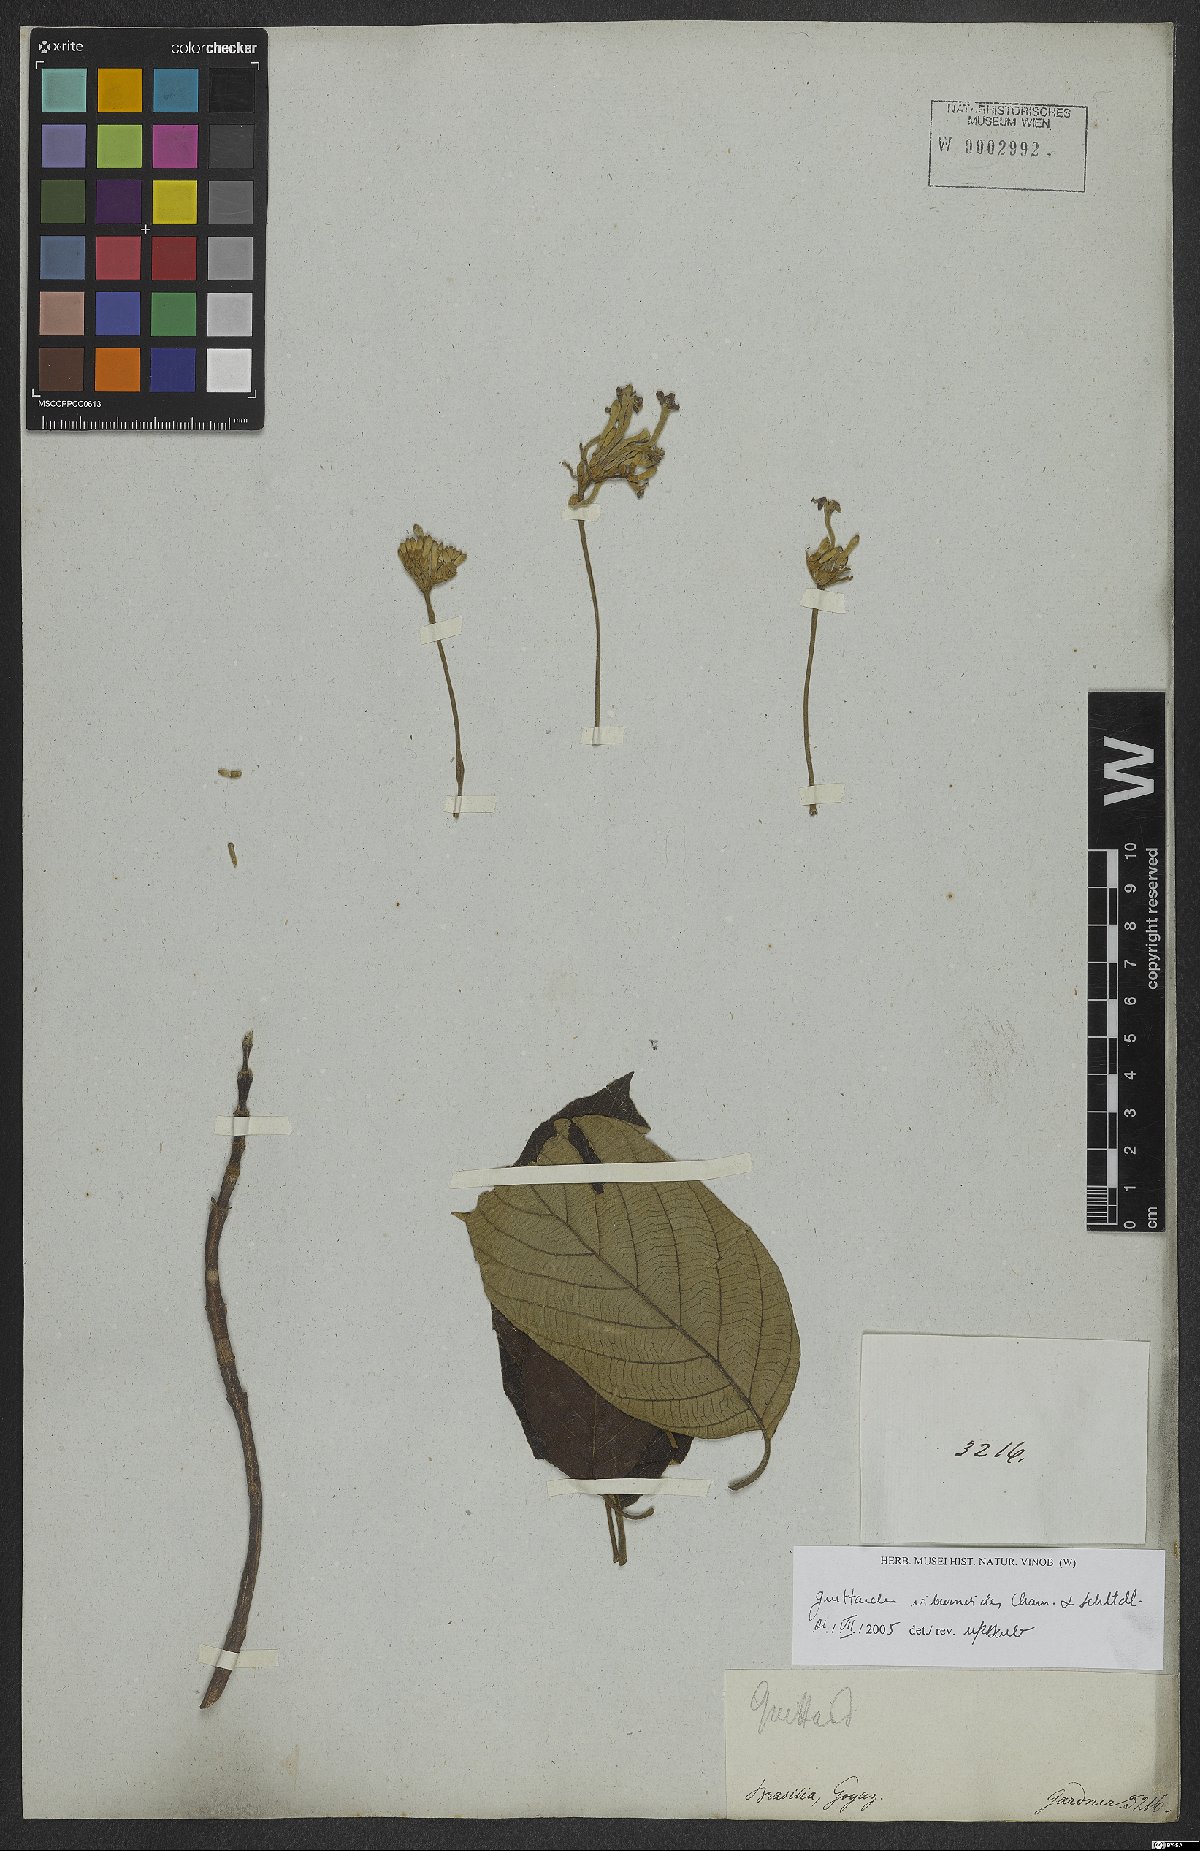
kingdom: Plantae
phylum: Tracheophyta
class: Magnoliopsida
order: Gentianales
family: Rubiaceae
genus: Guettarda
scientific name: Guettarda viburnoides
